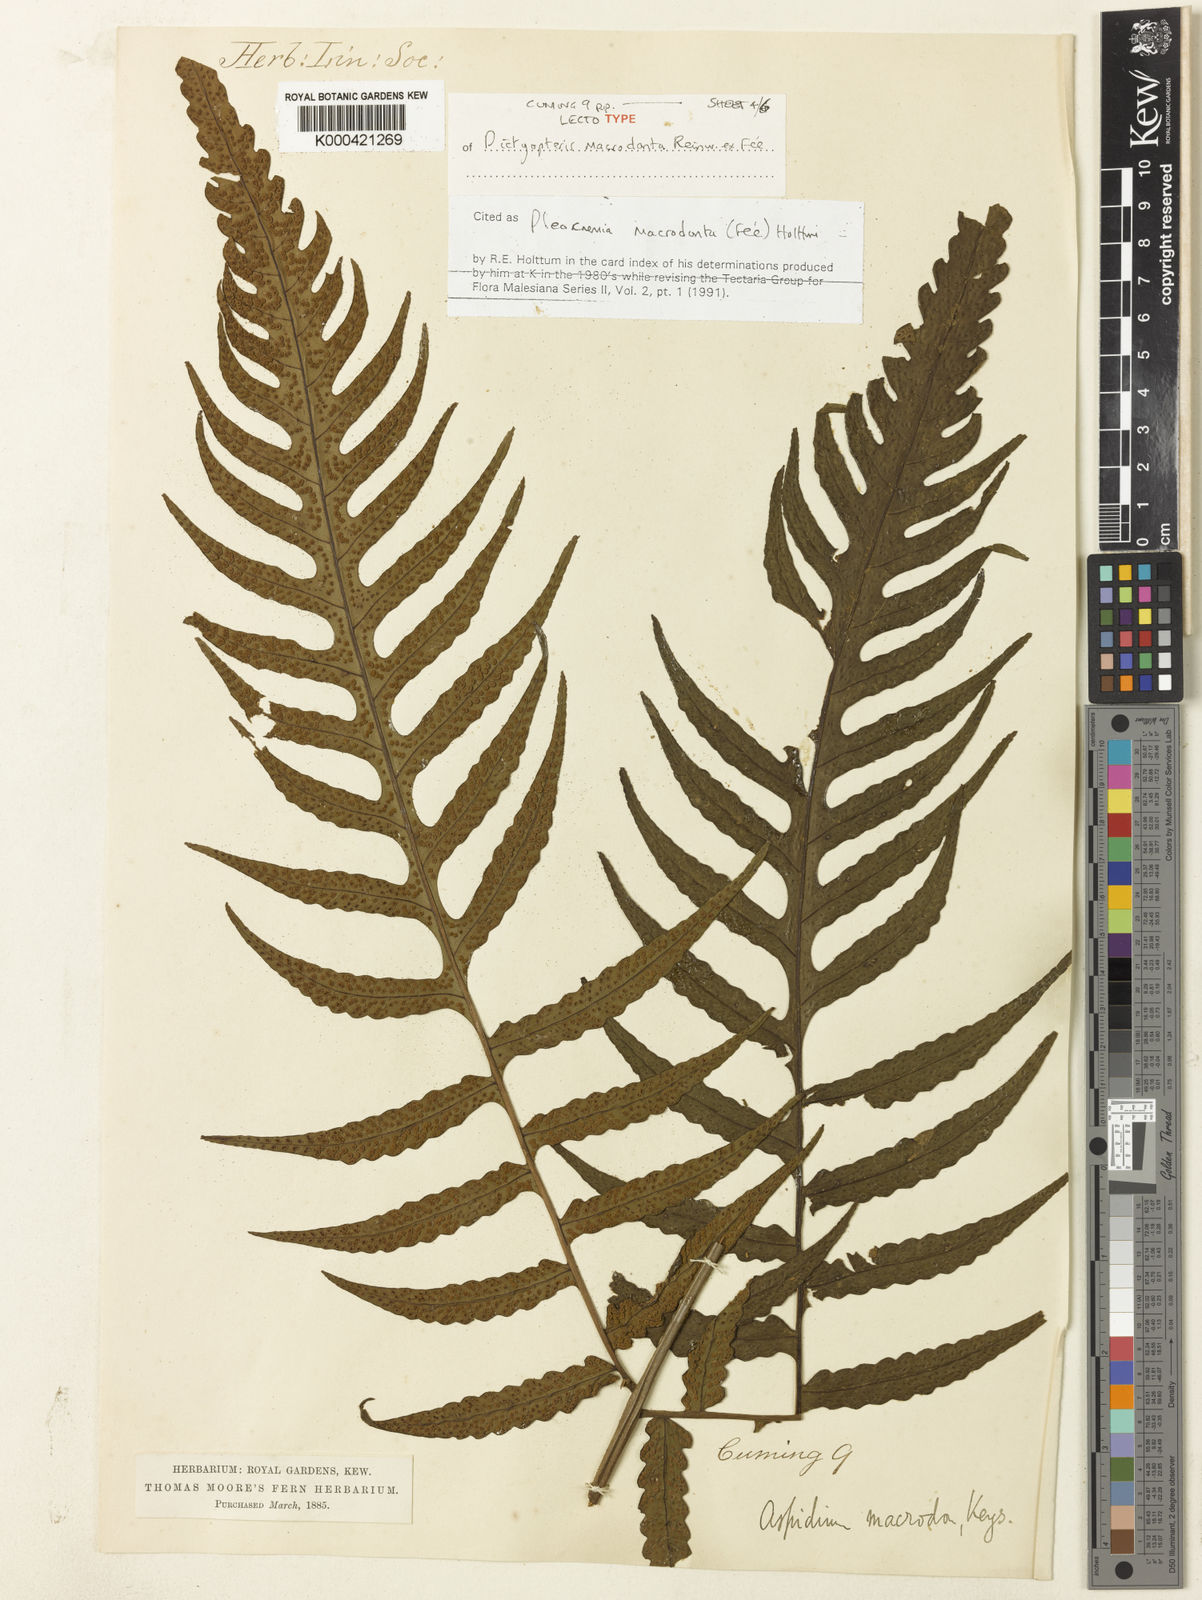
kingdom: Plantae
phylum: Tracheophyta
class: Polypodiopsida
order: Polypodiales
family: Dryopteridaceae
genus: Pleocnemia
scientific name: Pleocnemia
